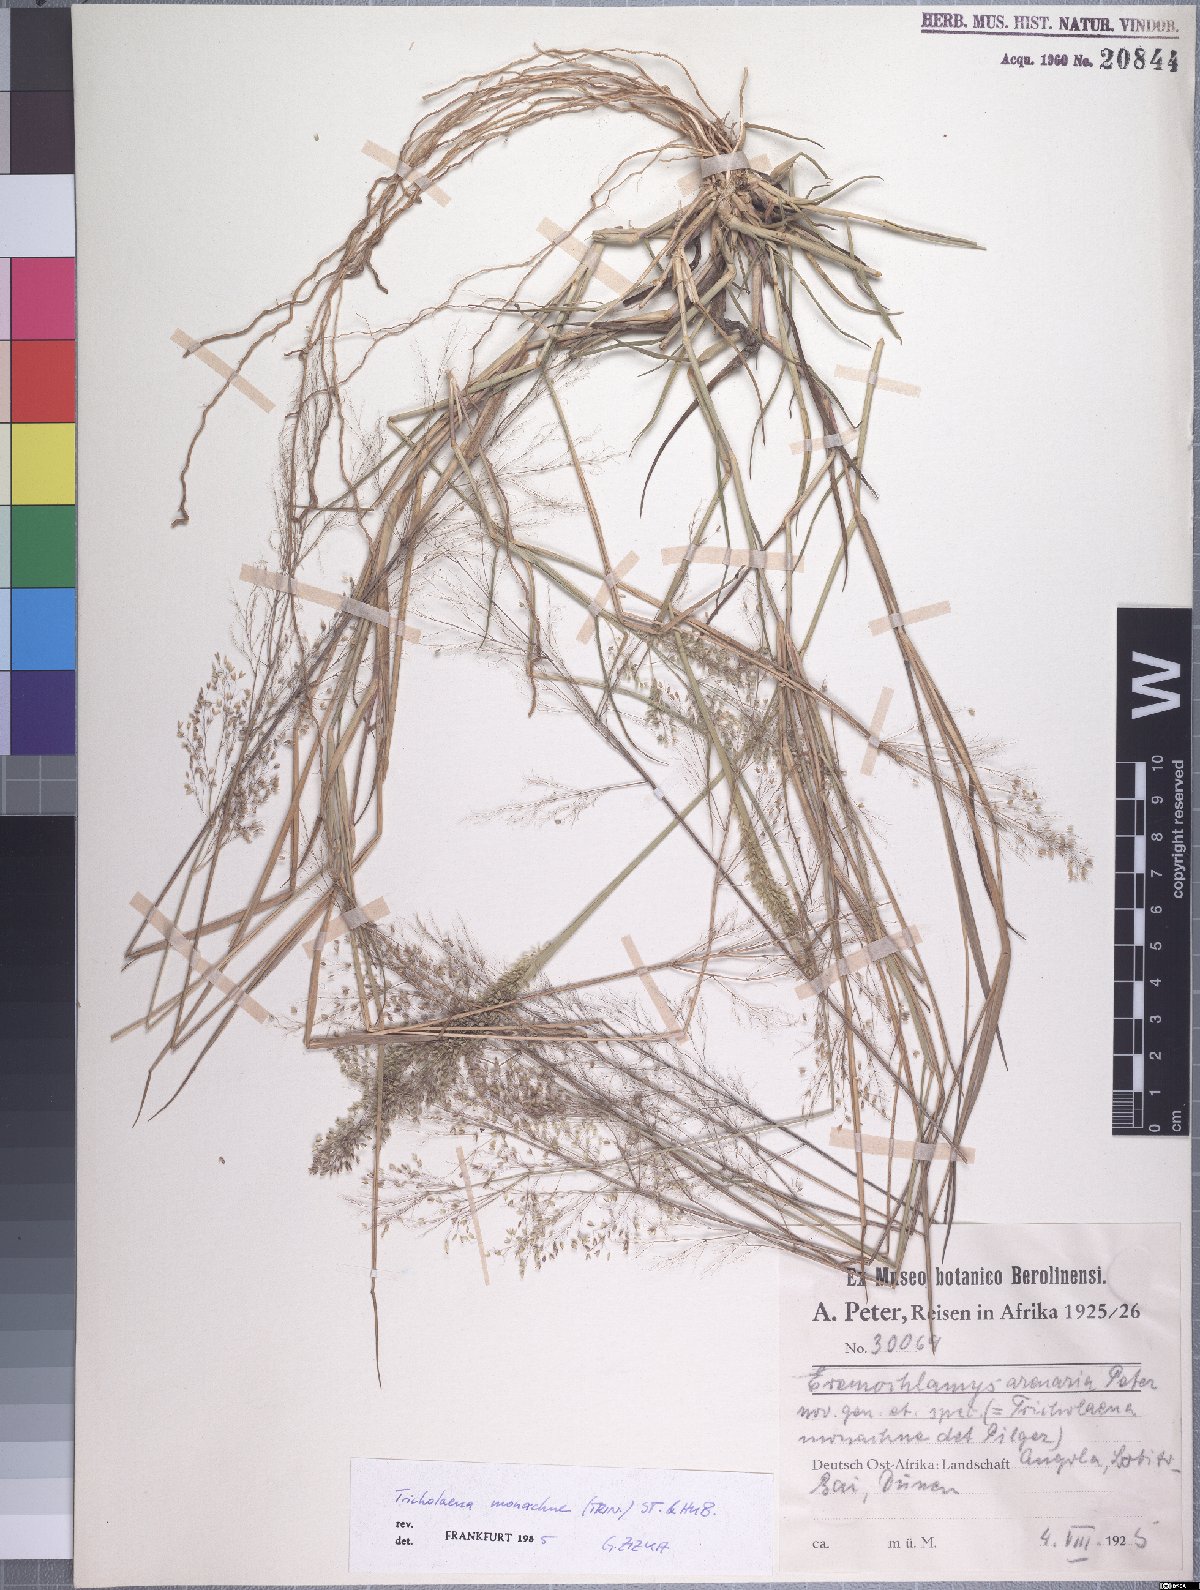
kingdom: Plantae
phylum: Tracheophyta
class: Liliopsida
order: Poales
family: Poaceae
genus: Tricholaena
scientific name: Tricholaena monachne
